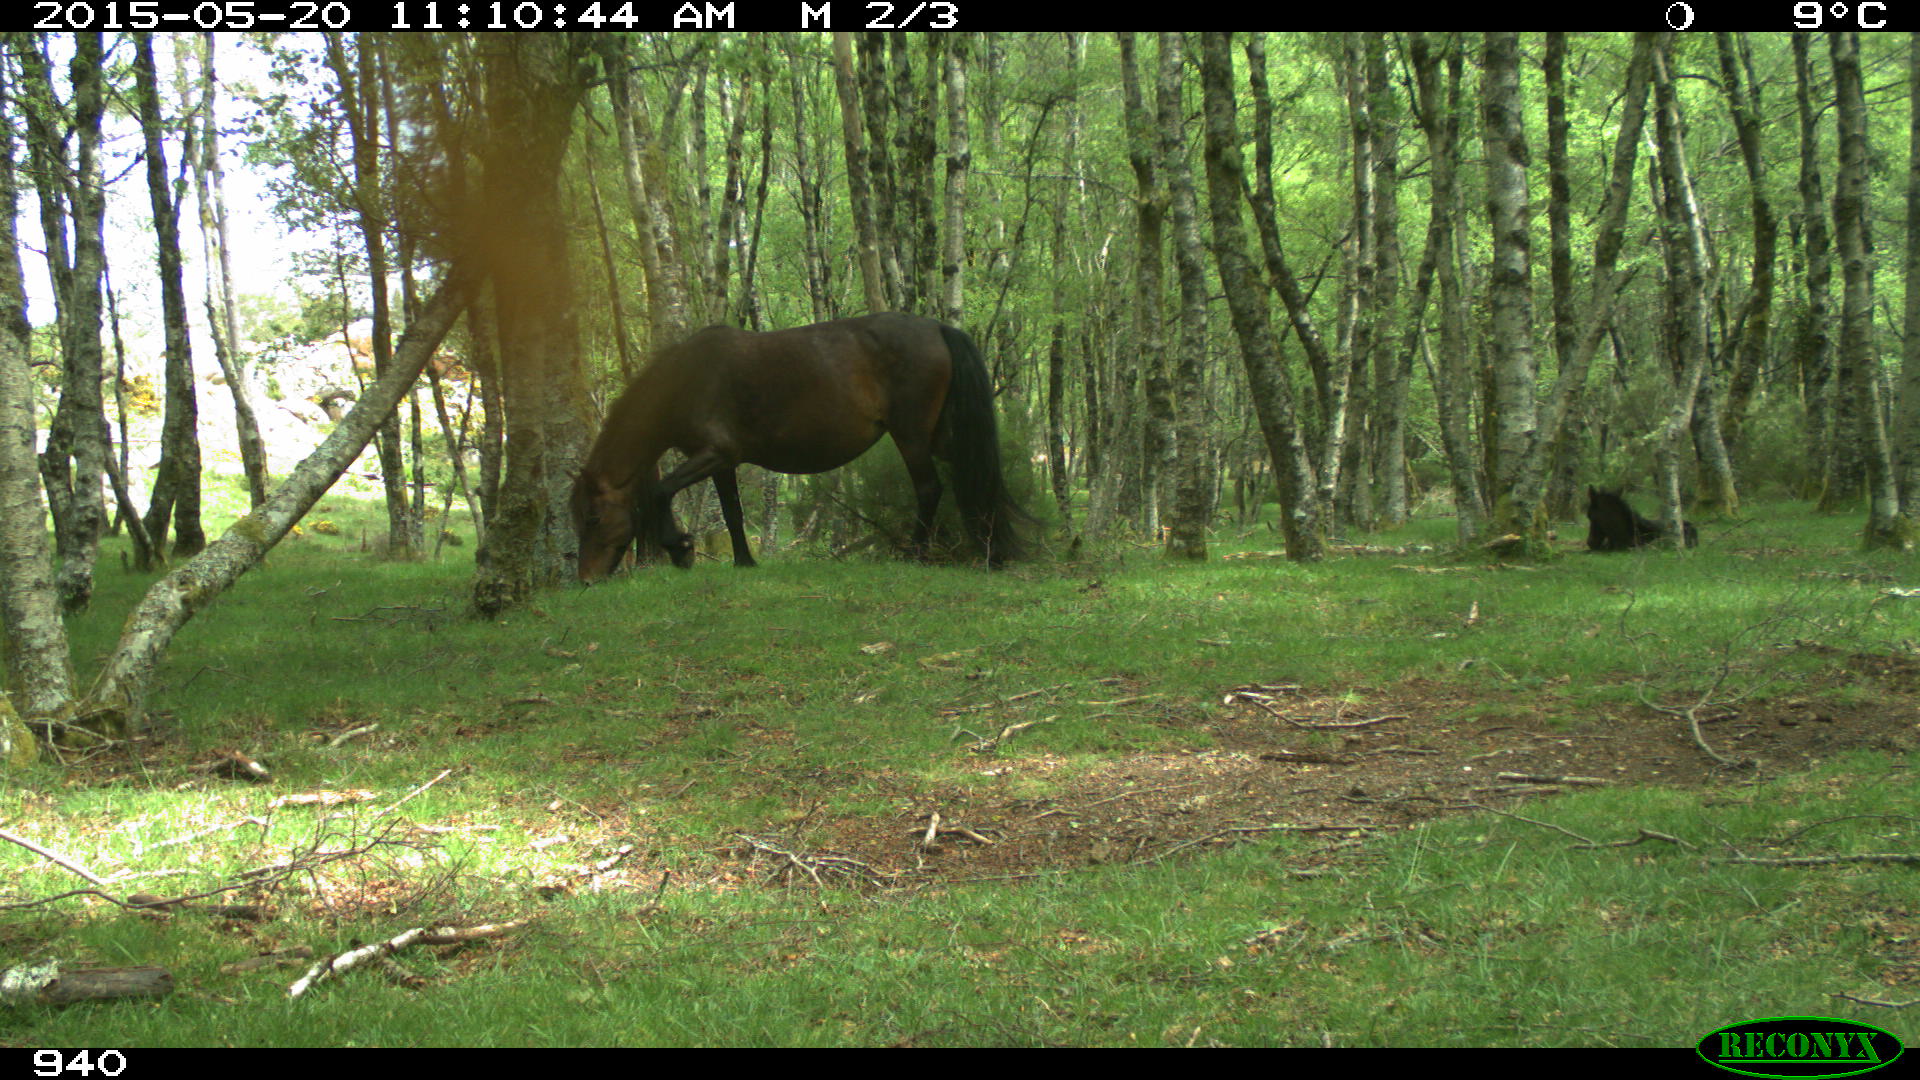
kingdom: Animalia
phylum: Chordata
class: Mammalia
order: Perissodactyla
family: Equidae
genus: Equus
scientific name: Equus caballus
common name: Horse
